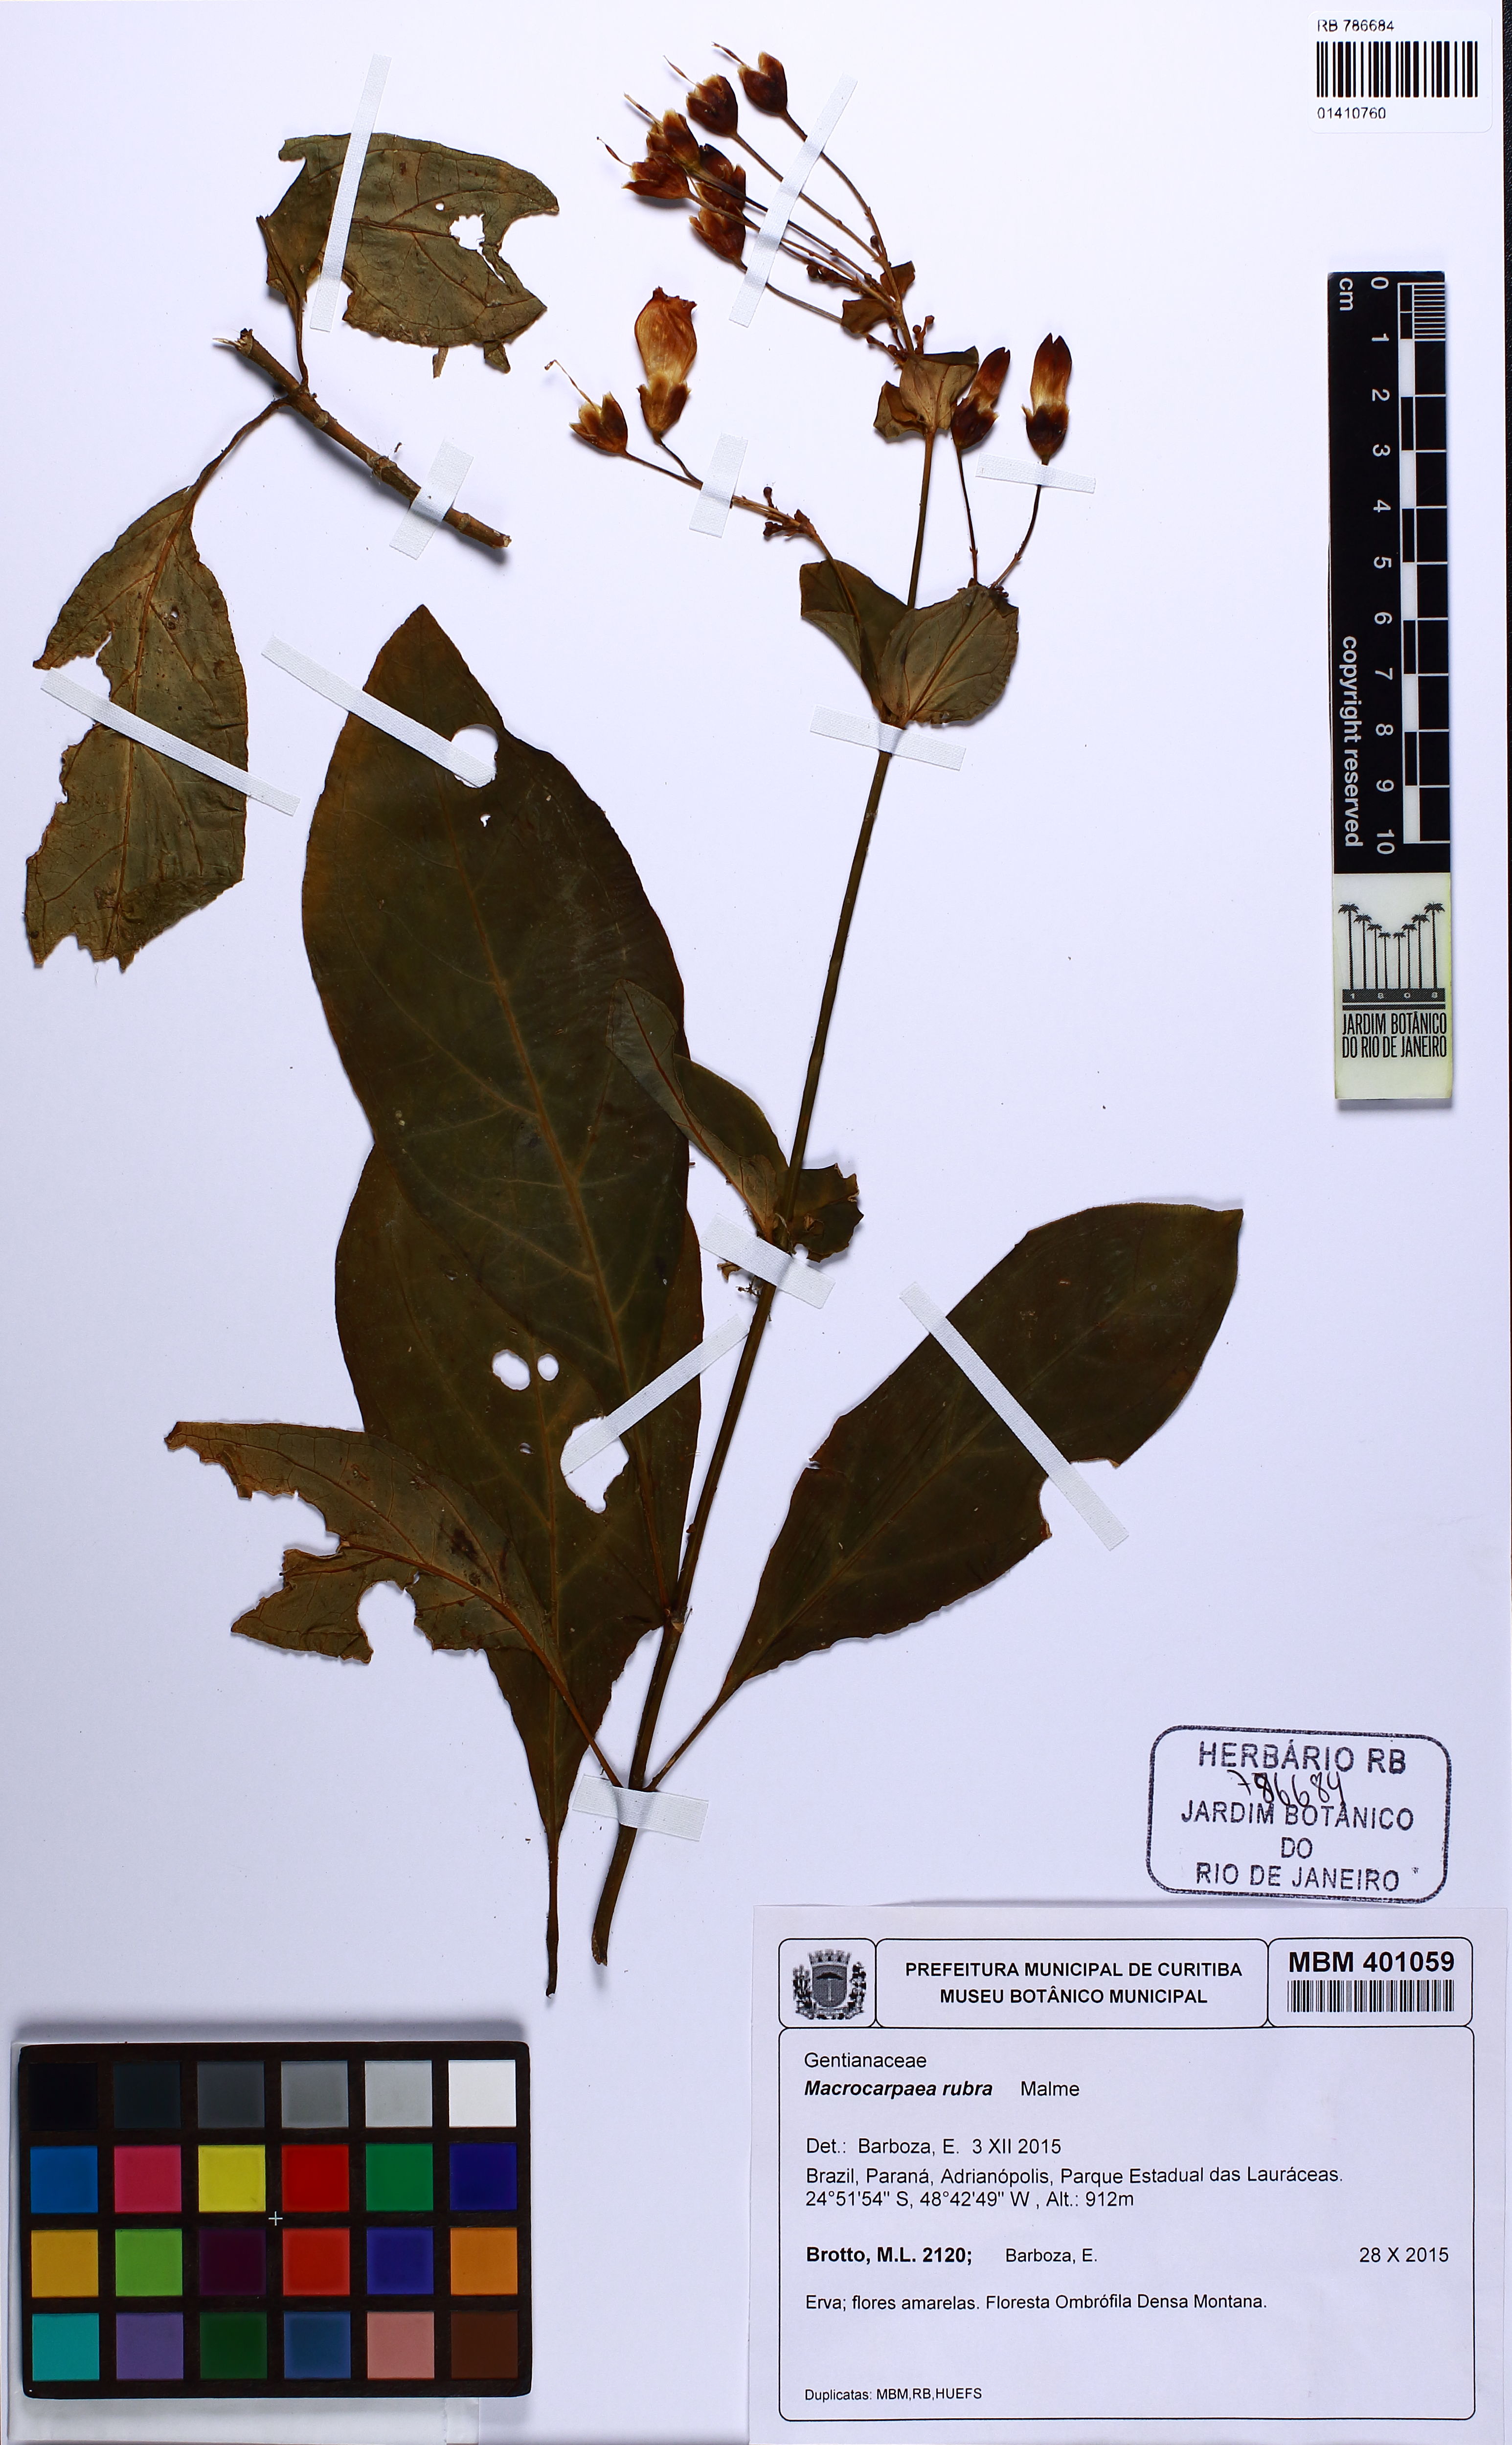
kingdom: Plantae
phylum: Tracheophyta
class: Magnoliopsida
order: Gentianales
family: Gentianaceae
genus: Macrocarpaea
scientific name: Macrocarpaea rubra
